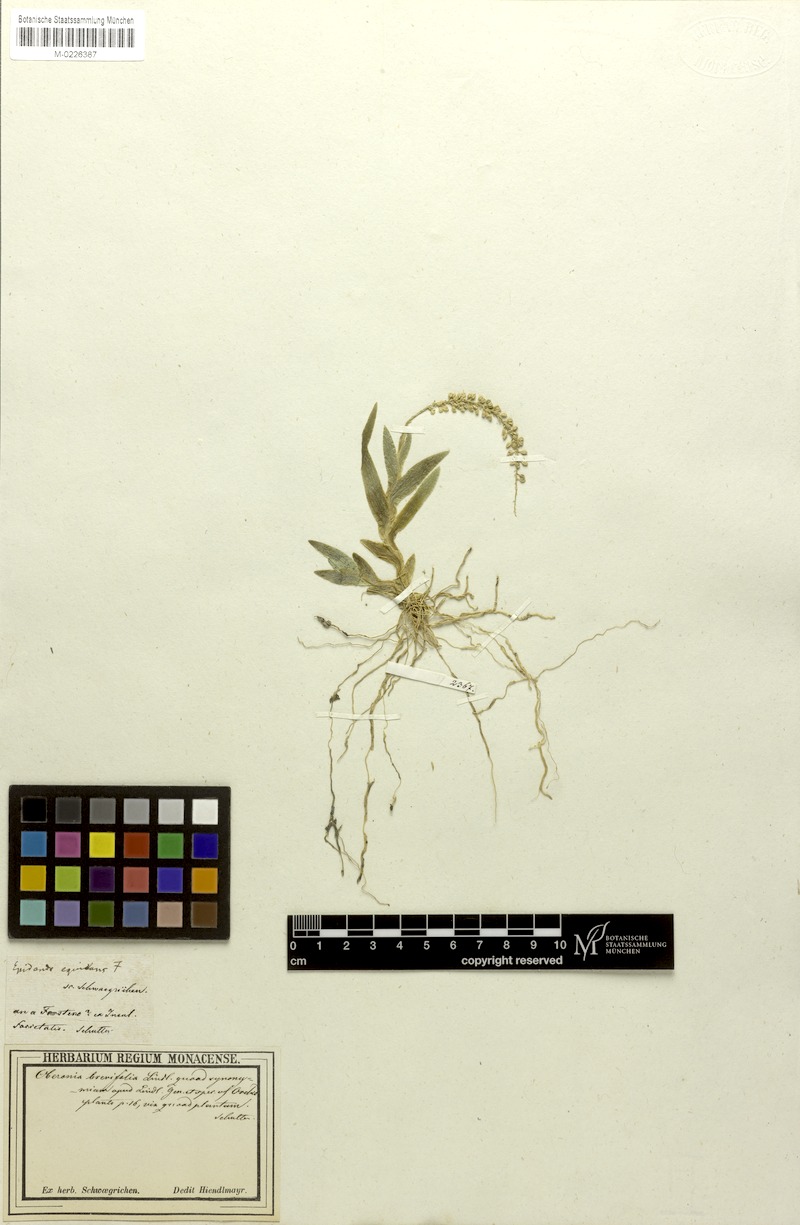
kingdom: Plantae
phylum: Tracheophyta
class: Liliopsida
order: Asparagales
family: Orchidaceae
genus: Oberonia
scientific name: Oberonia disticha
